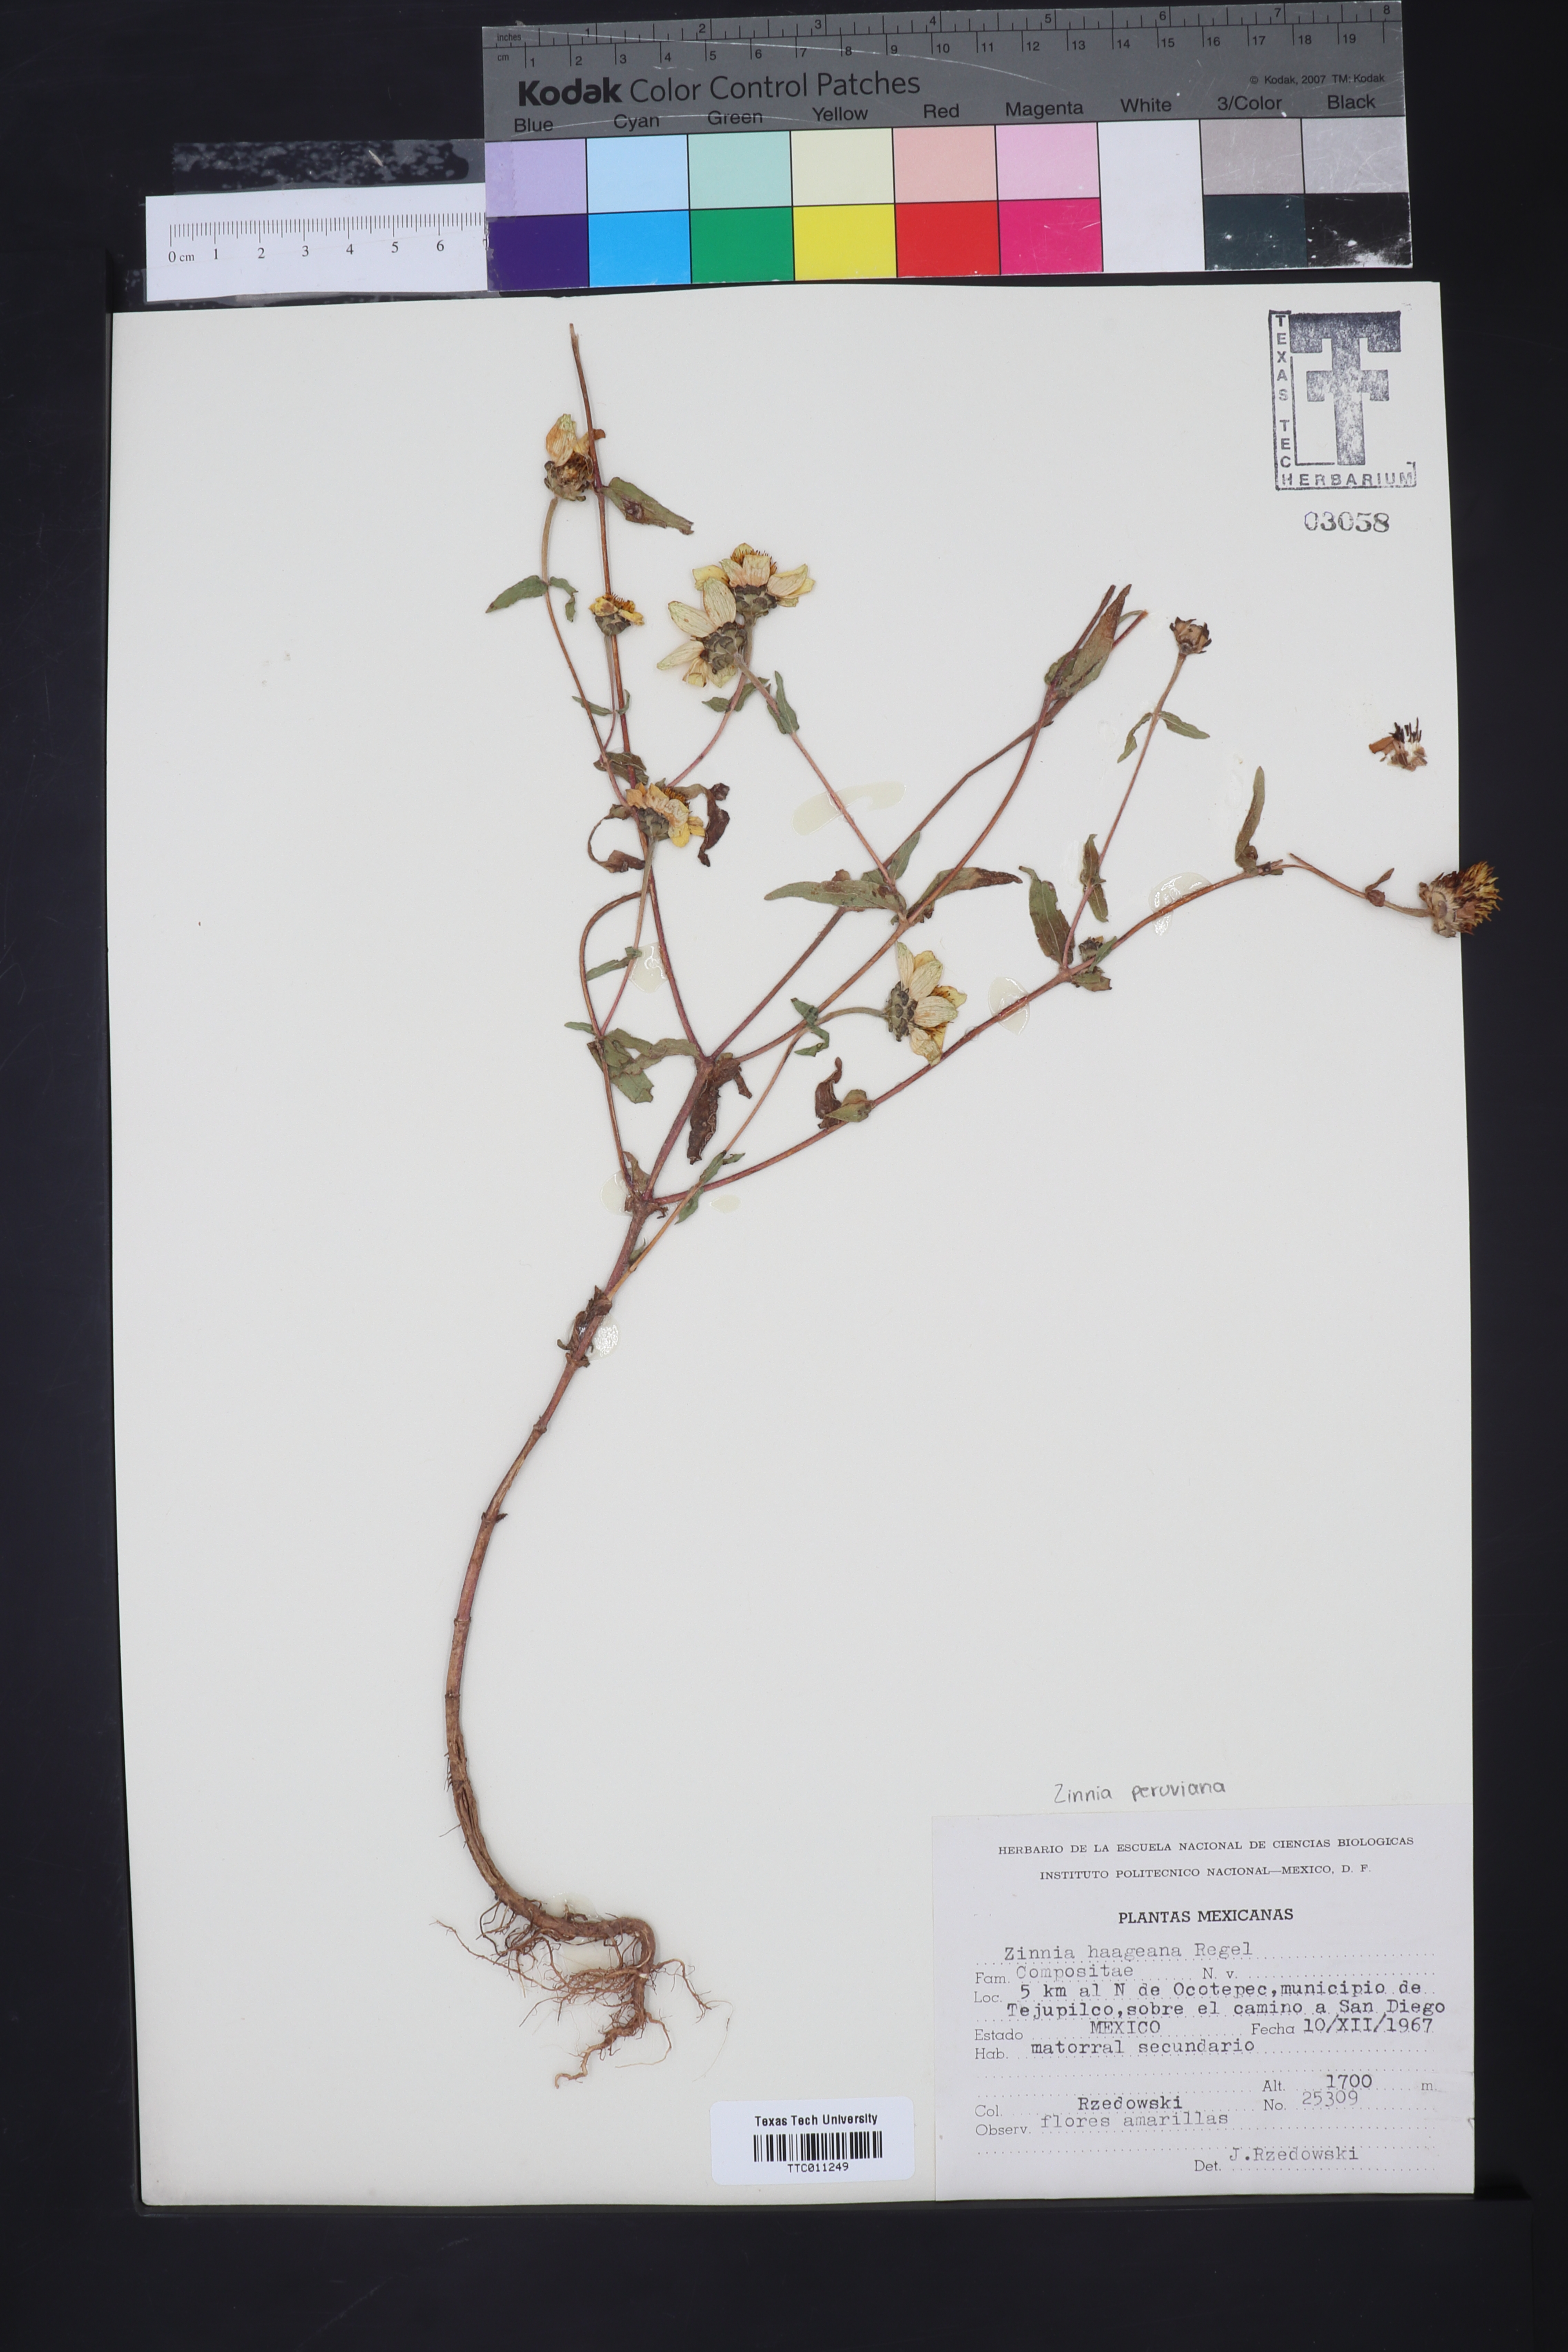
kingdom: Plantae
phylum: Tracheophyta
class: Magnoliopsida
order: Asterales
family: Asteraceae
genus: Zinnia
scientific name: Zinnia haageana
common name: Mexican zinnia
